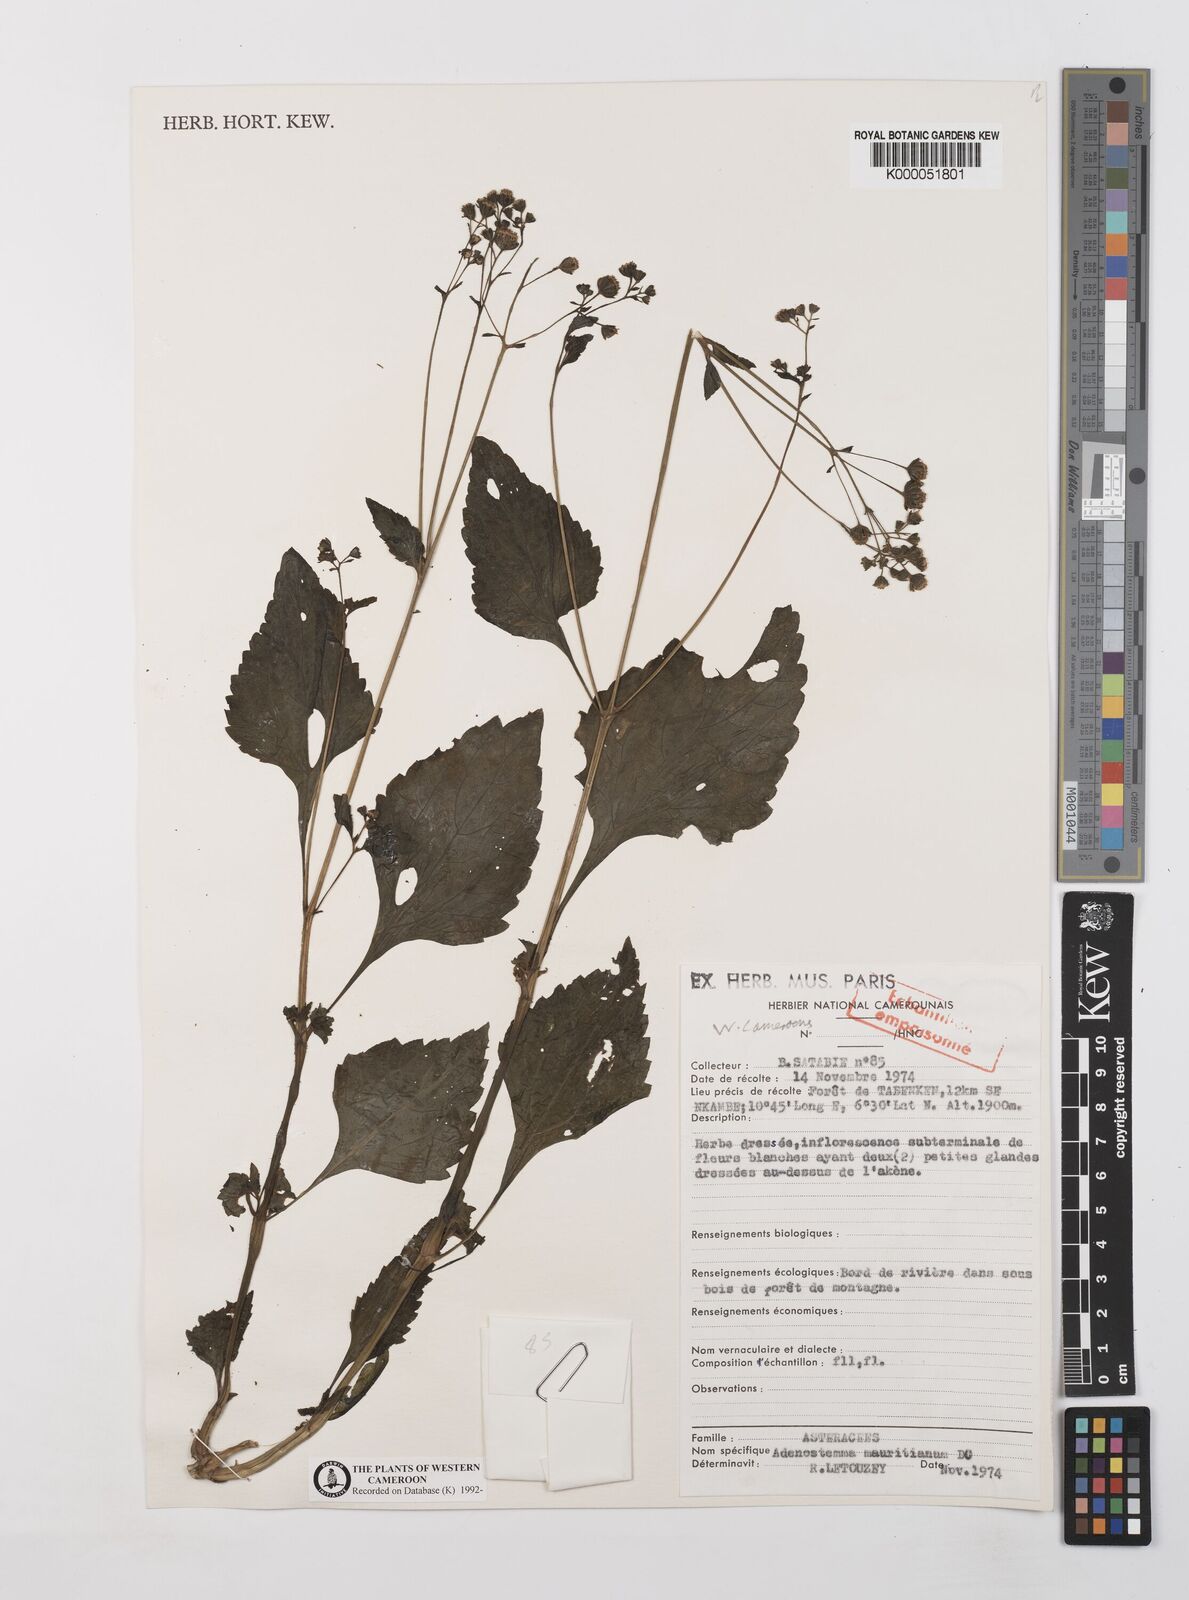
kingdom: Plantae
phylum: Tracheophyta
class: Magnoliopsida
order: Asterales
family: Asteraceae
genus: Adenostemma
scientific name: Adenostemma mauritianum
